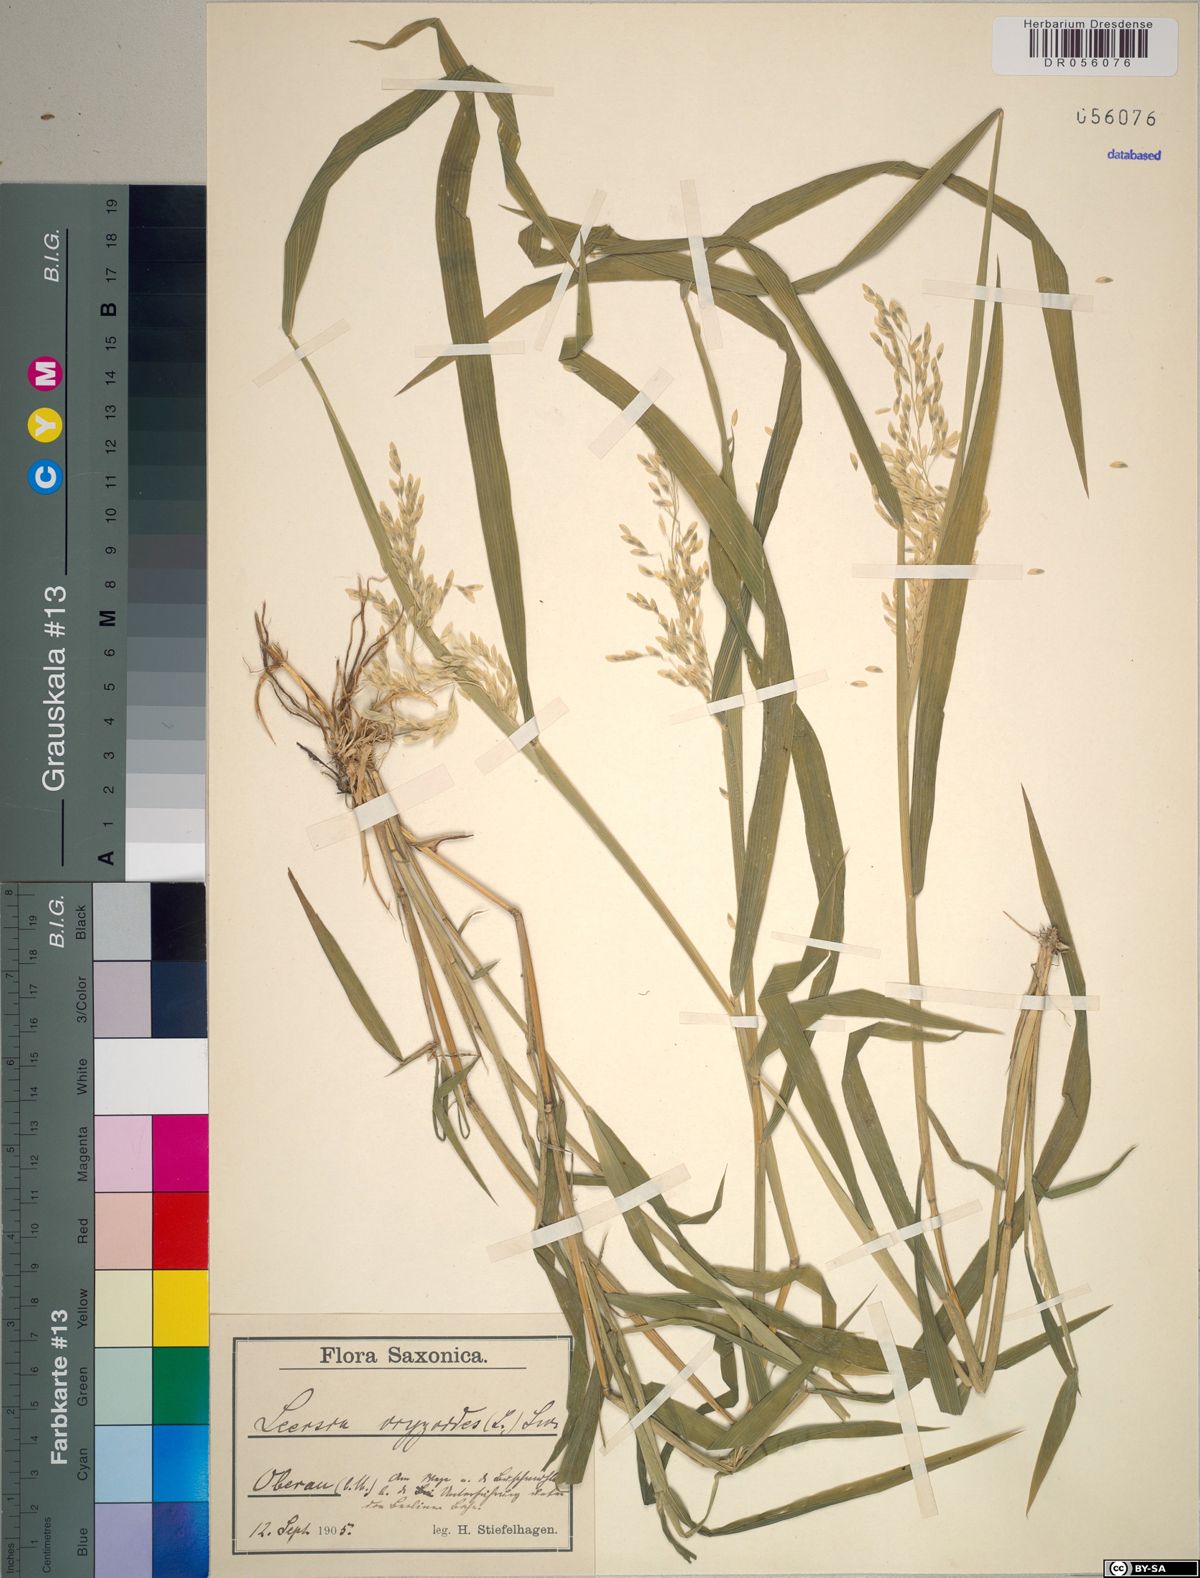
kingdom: Plantae
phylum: Tracheophyta
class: Liliopsida
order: Poales
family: Poaceae
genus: Leersia
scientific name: Leersia oryzoides
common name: Cut-grass
